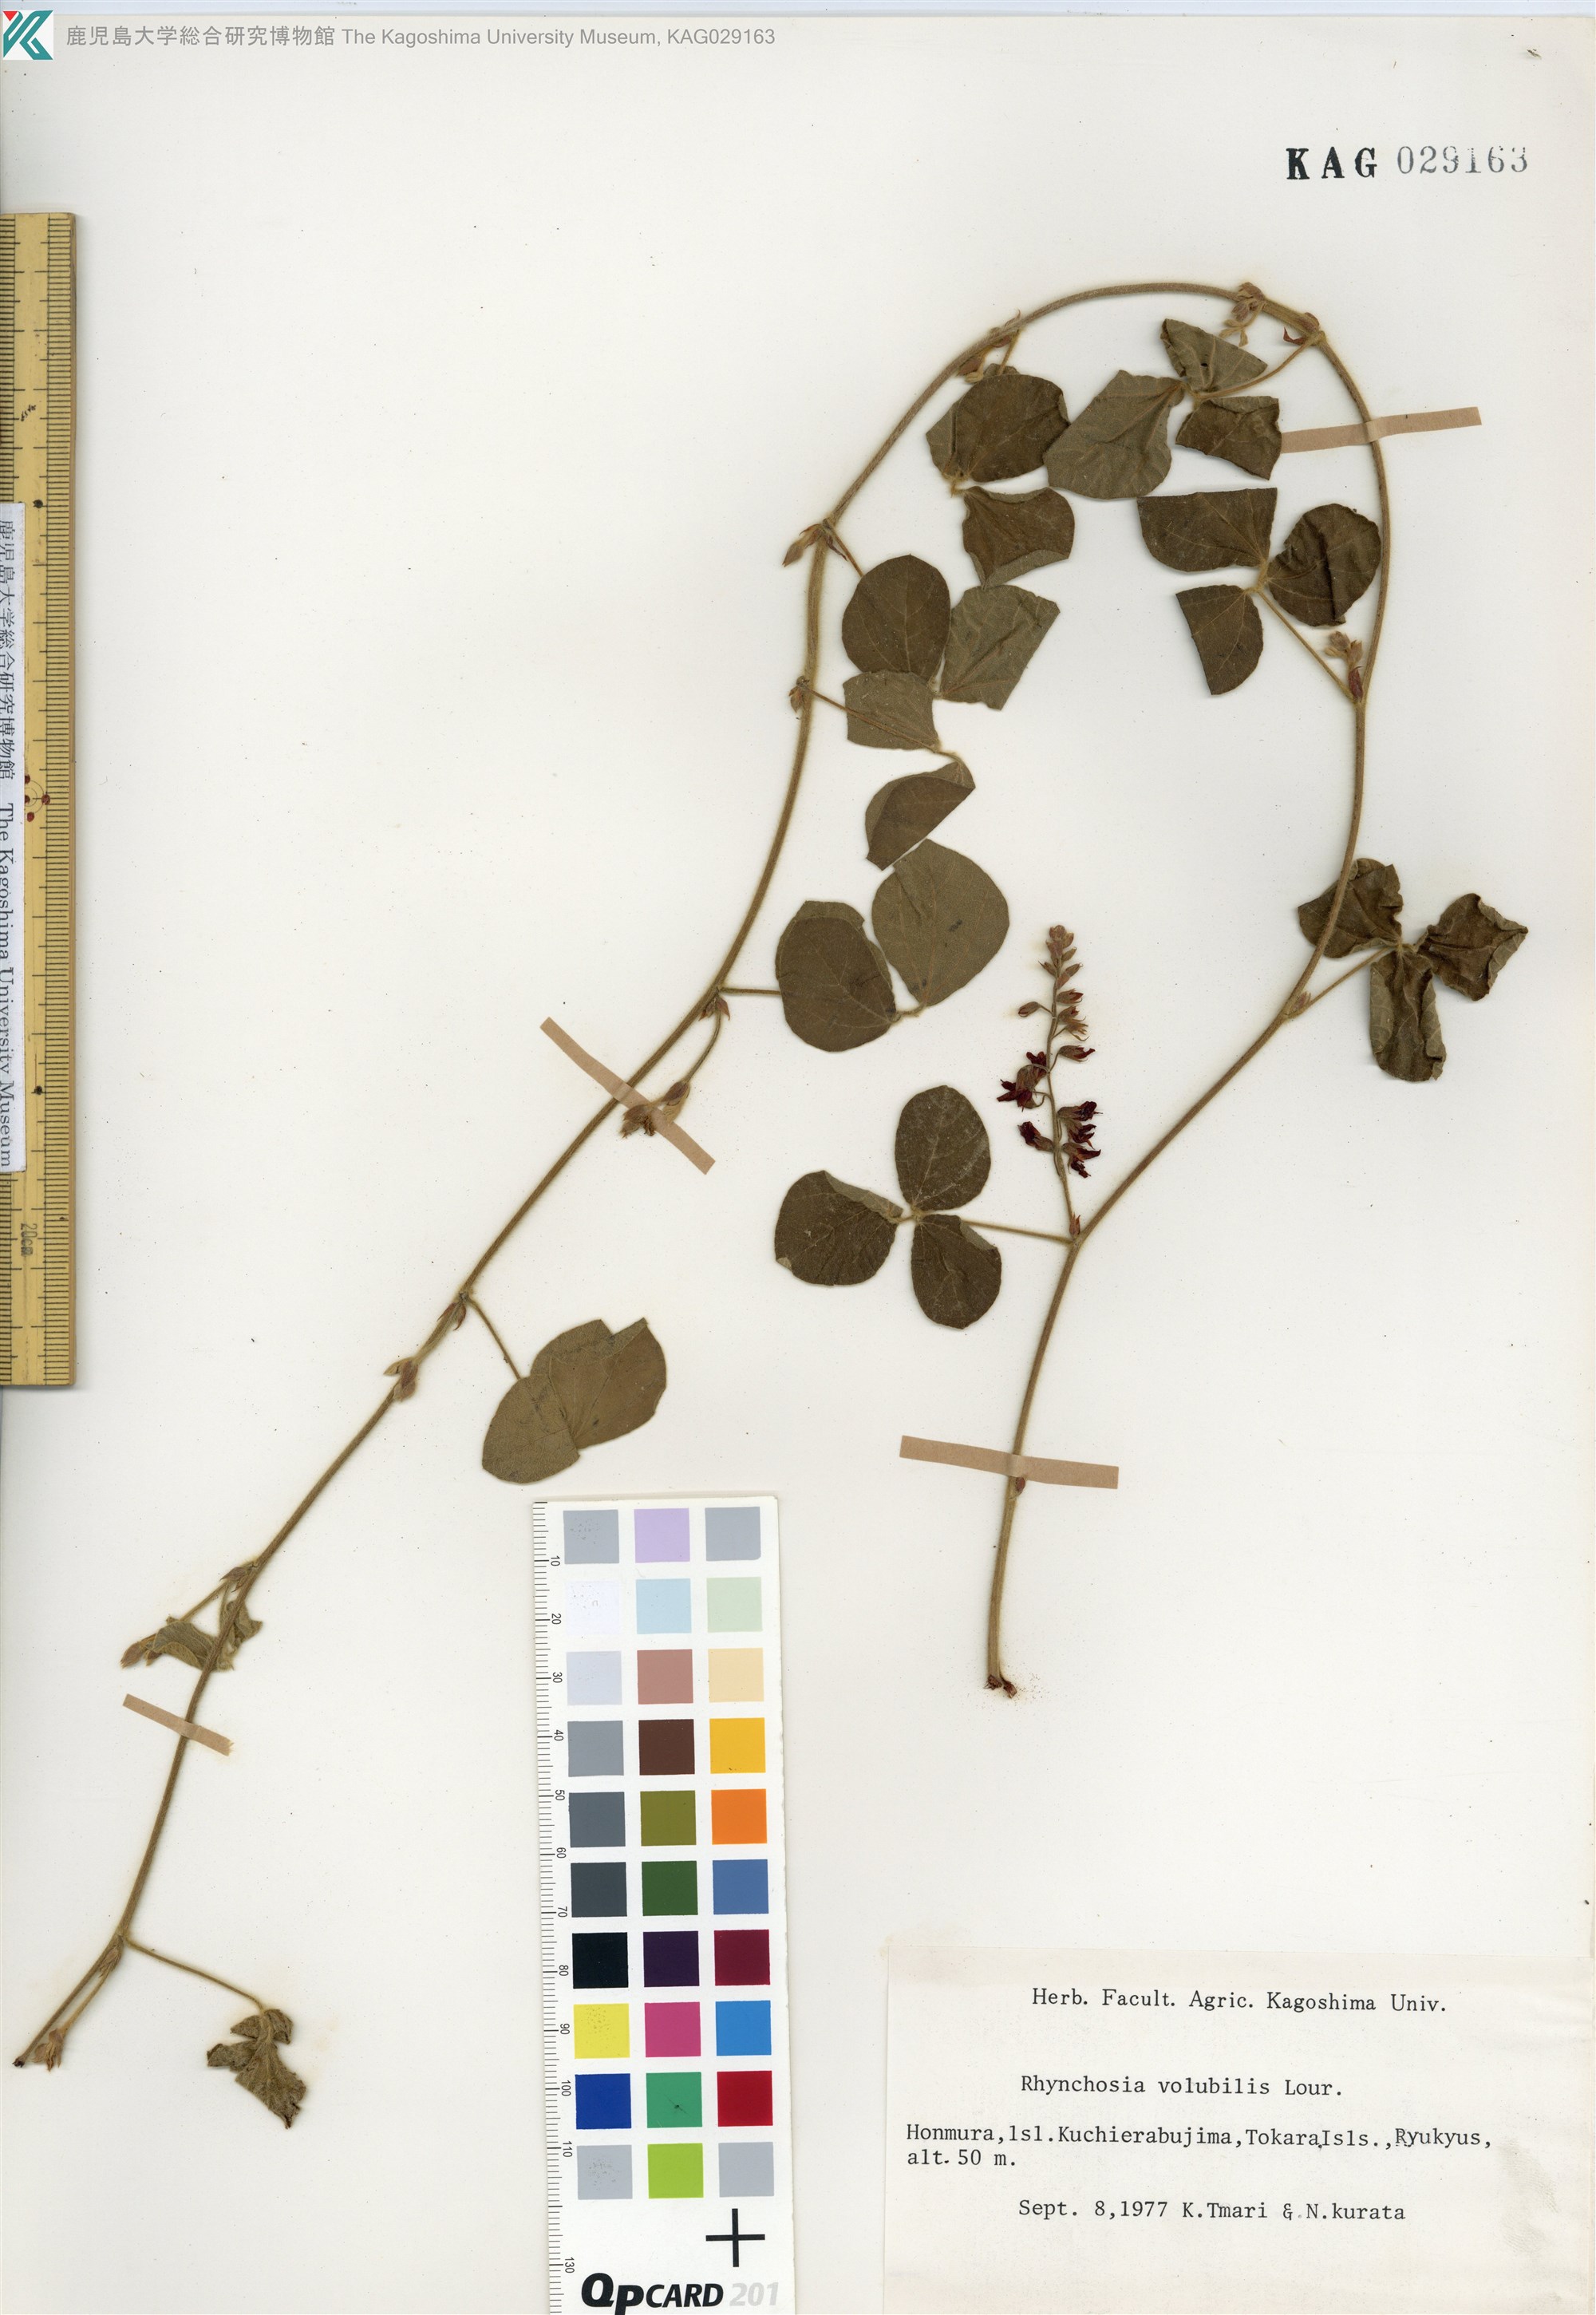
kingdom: Plantae
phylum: Tracheophyta
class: Magnoliopsida
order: Fabales
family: Fabaceae
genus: Rhynchosia
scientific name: Rhynchosia volubilis
